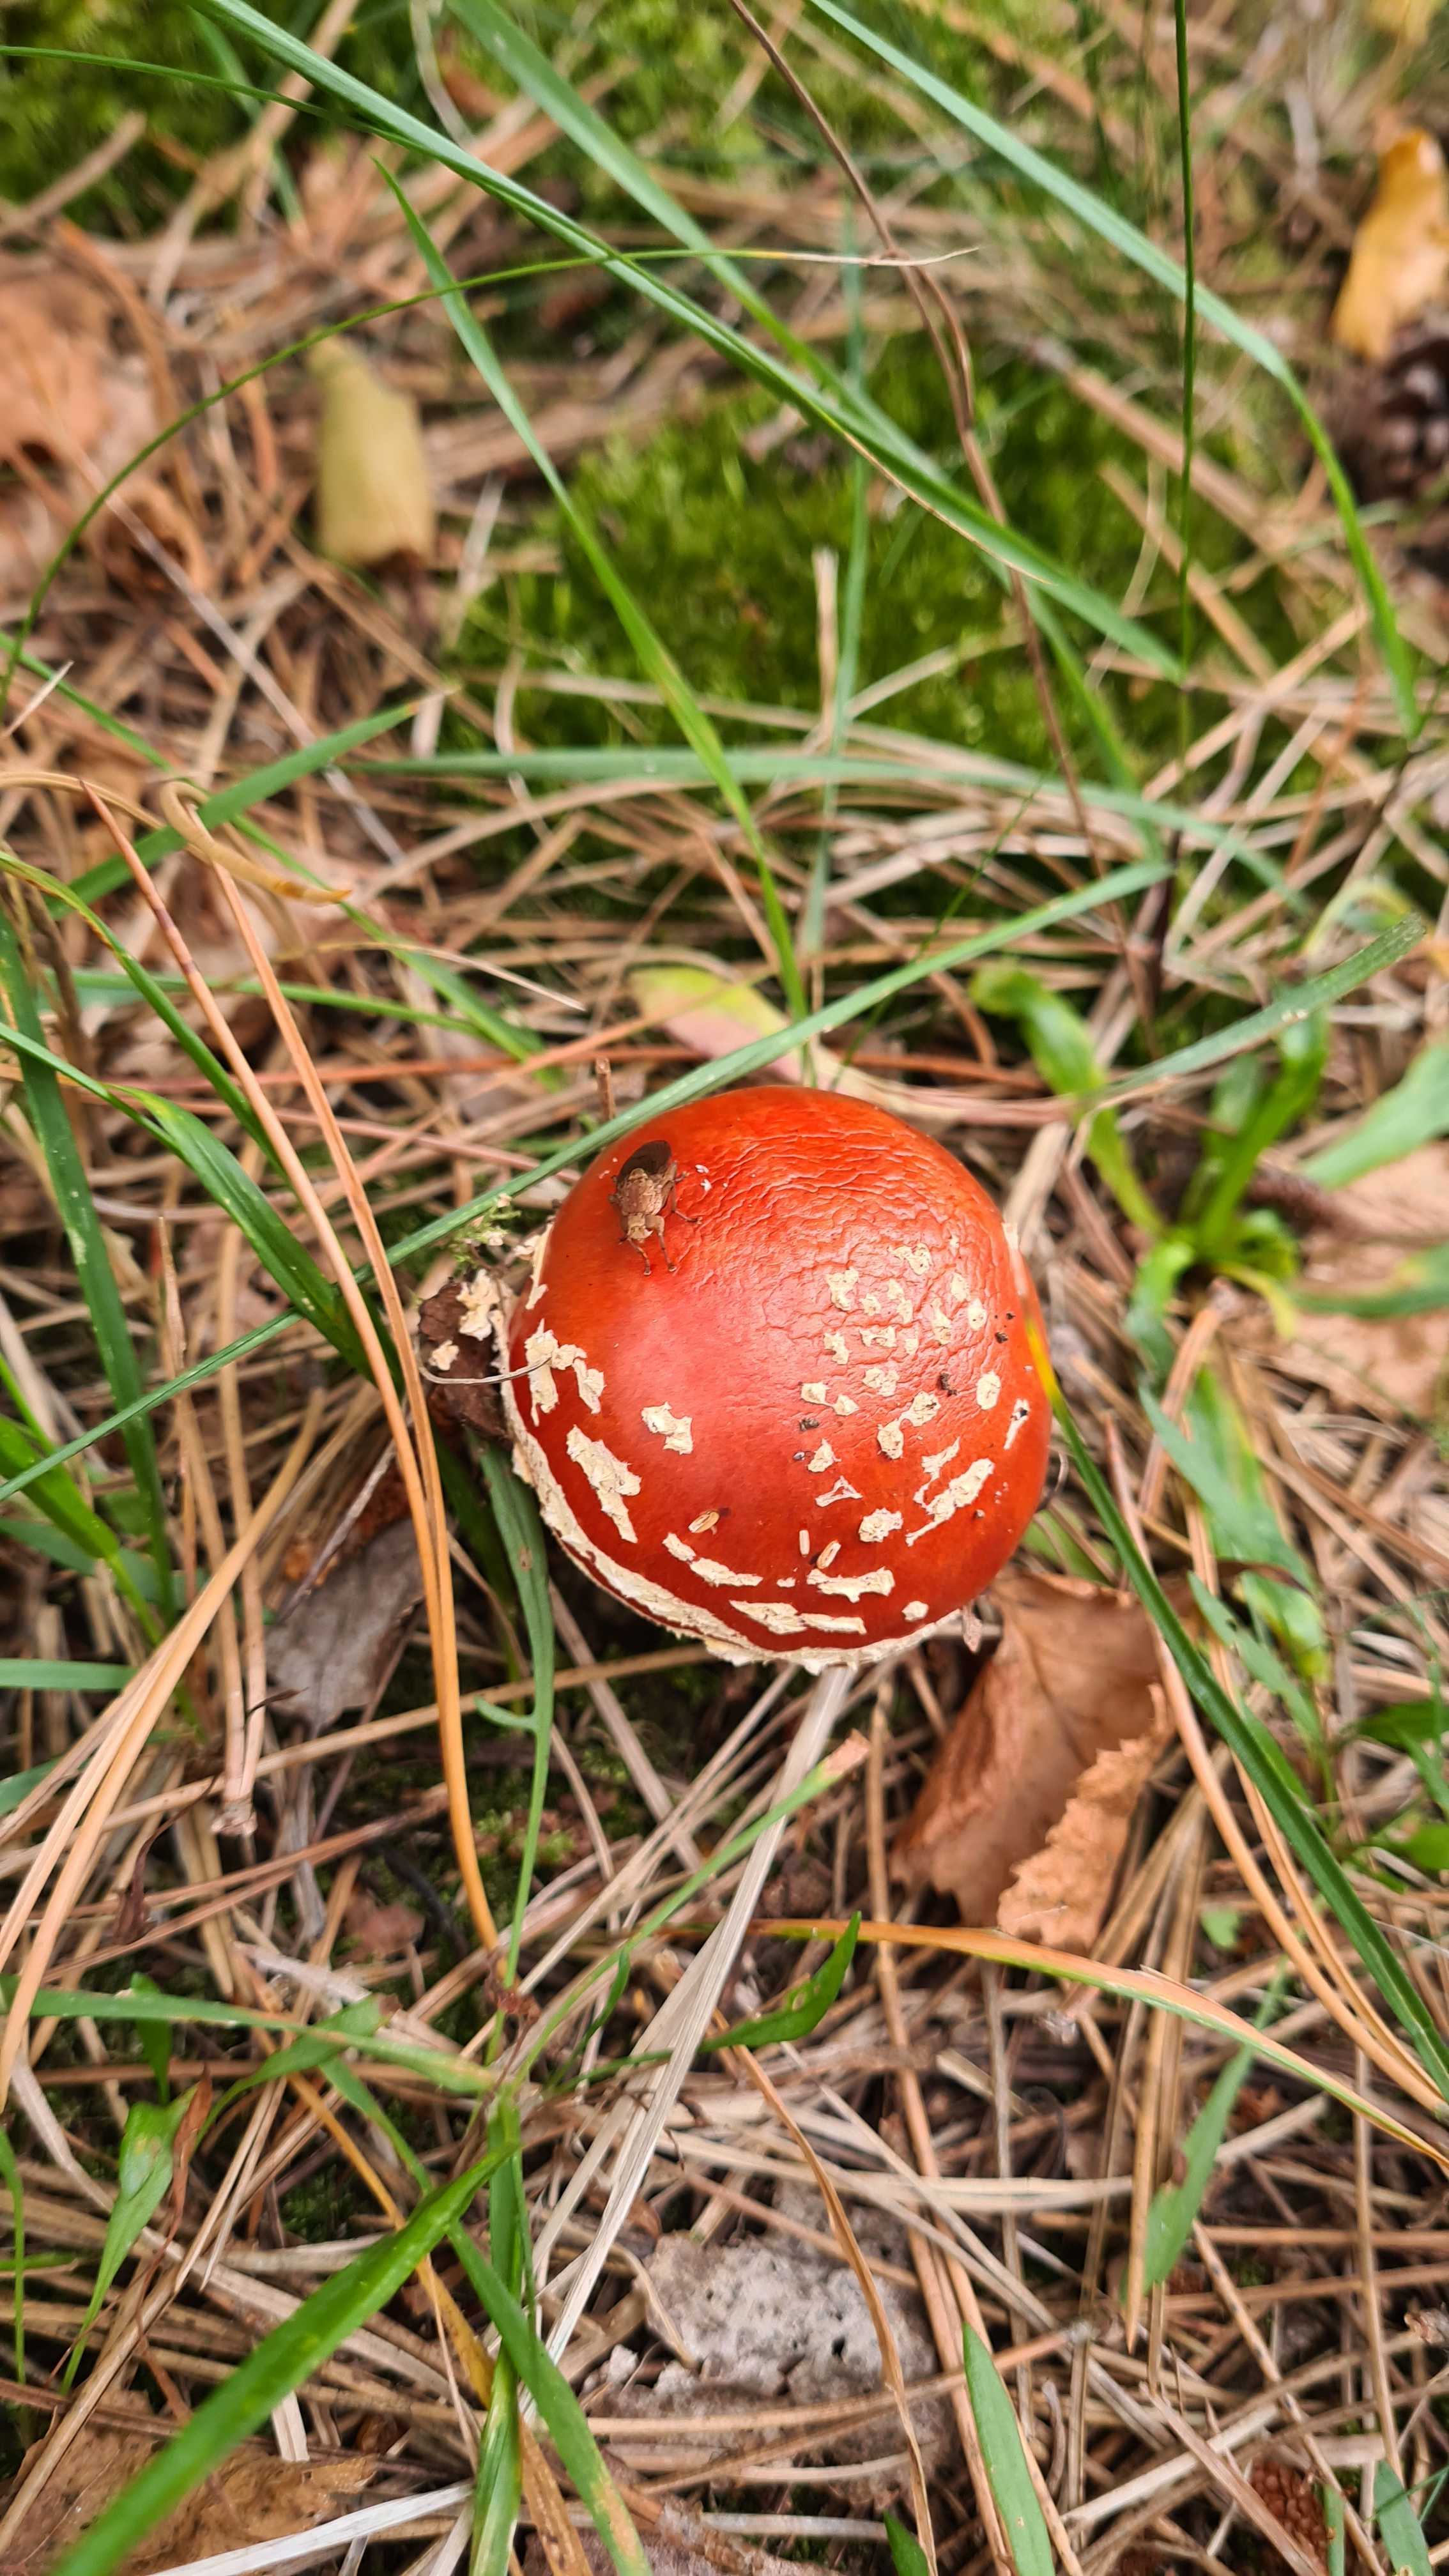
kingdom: Fungi
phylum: Basidiomycota
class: Agaricomycetes
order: Agaricales
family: Amanitaceae
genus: Amanita
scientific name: Amanita muscaria
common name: rød fluesvamp
